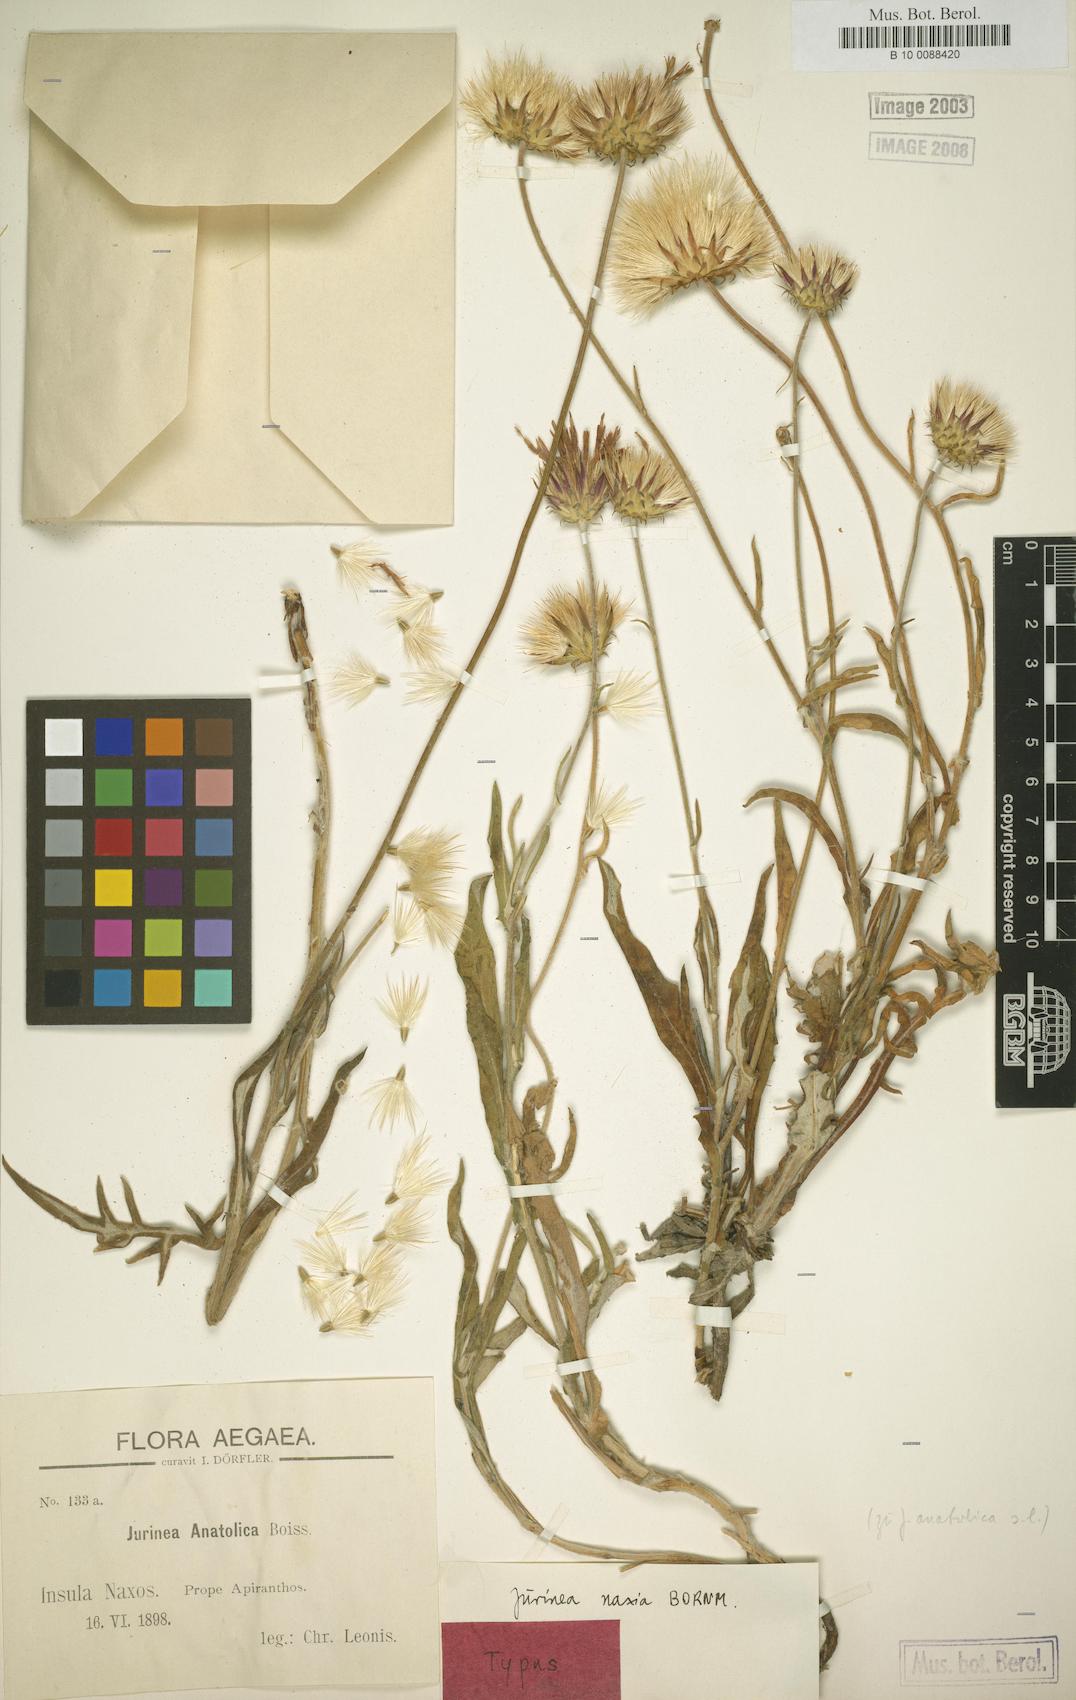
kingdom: Plantae
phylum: Tracheophyta
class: Magnoliopsida
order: Asterales
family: Asteraceae
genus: Jurinea
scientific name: Jurinea consanguinea
